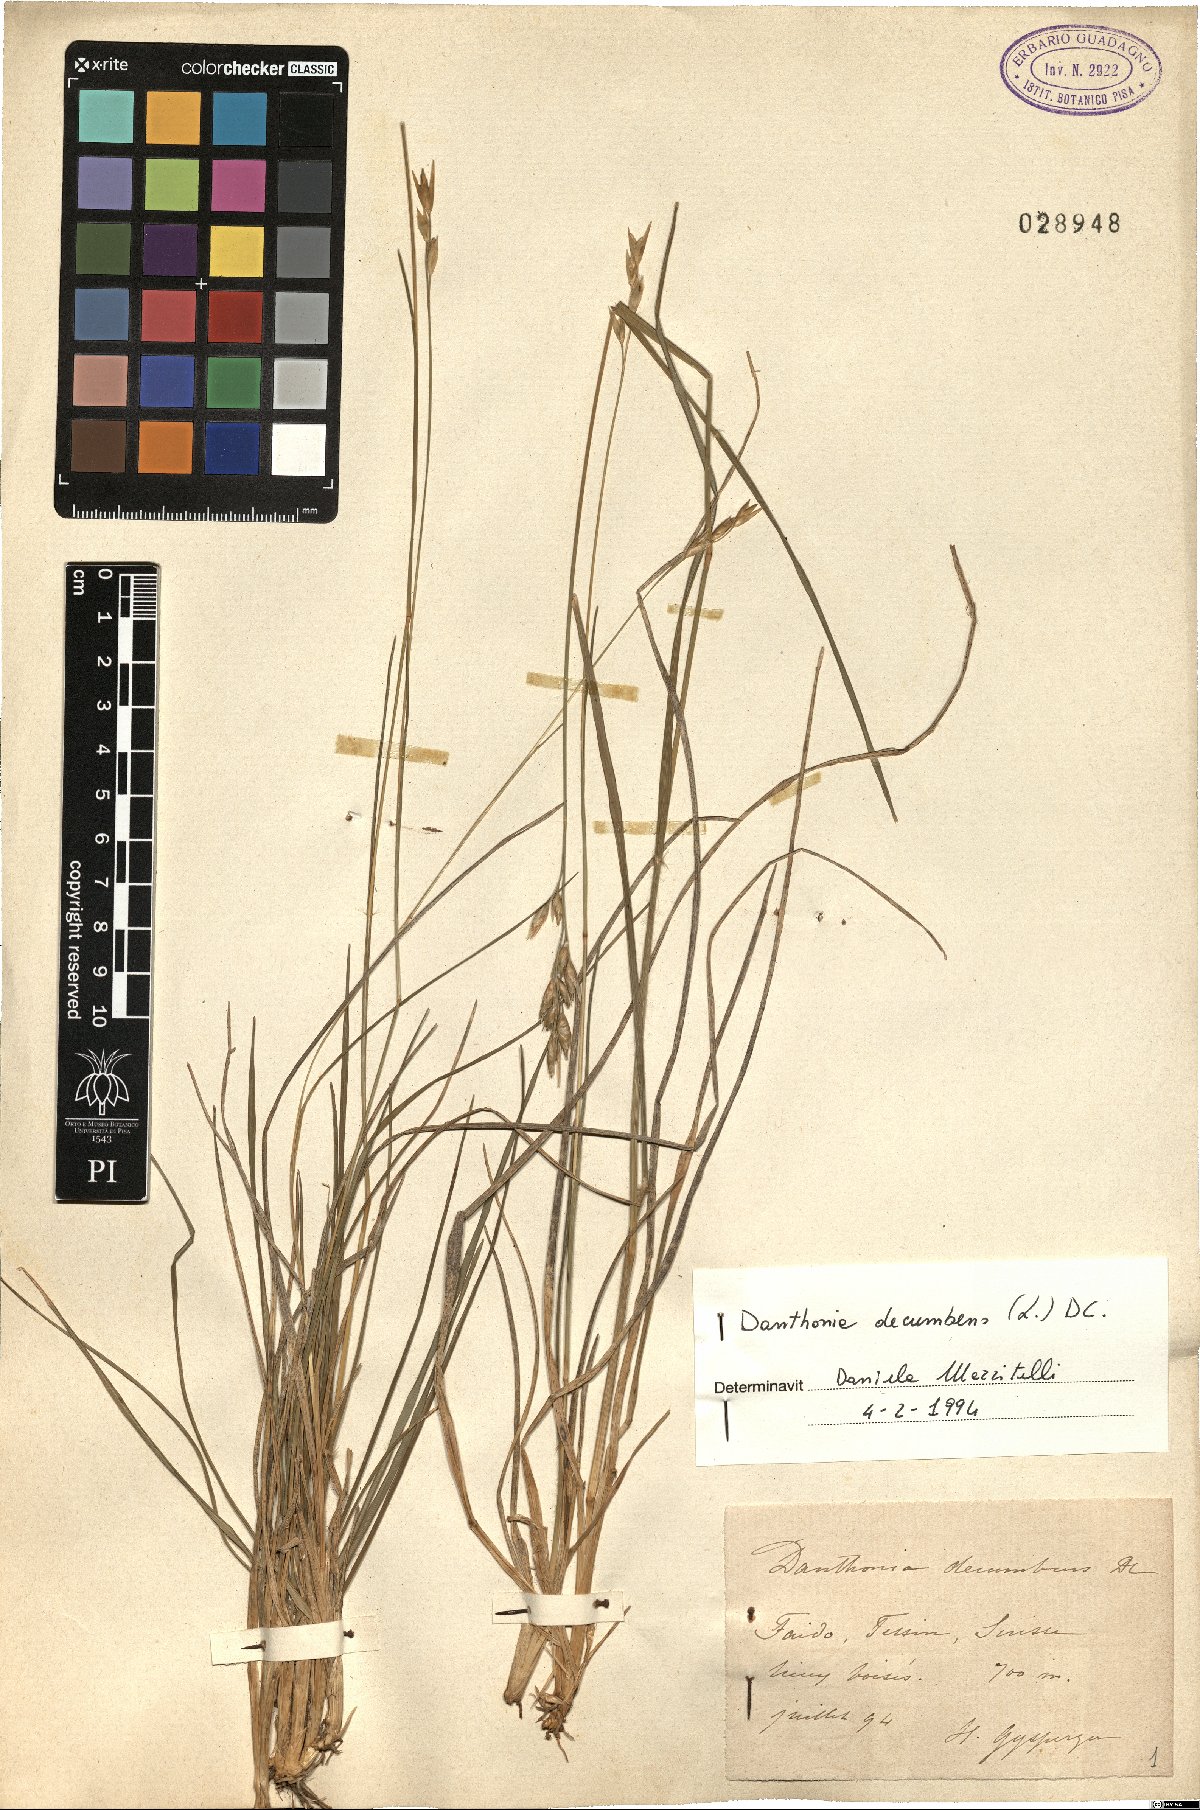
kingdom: Plantae
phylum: Tracheophyta
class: Liliopsida
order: Poales
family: Poaceae
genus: Danthonia
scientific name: Danthonia decumbens
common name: Common heathgrass
